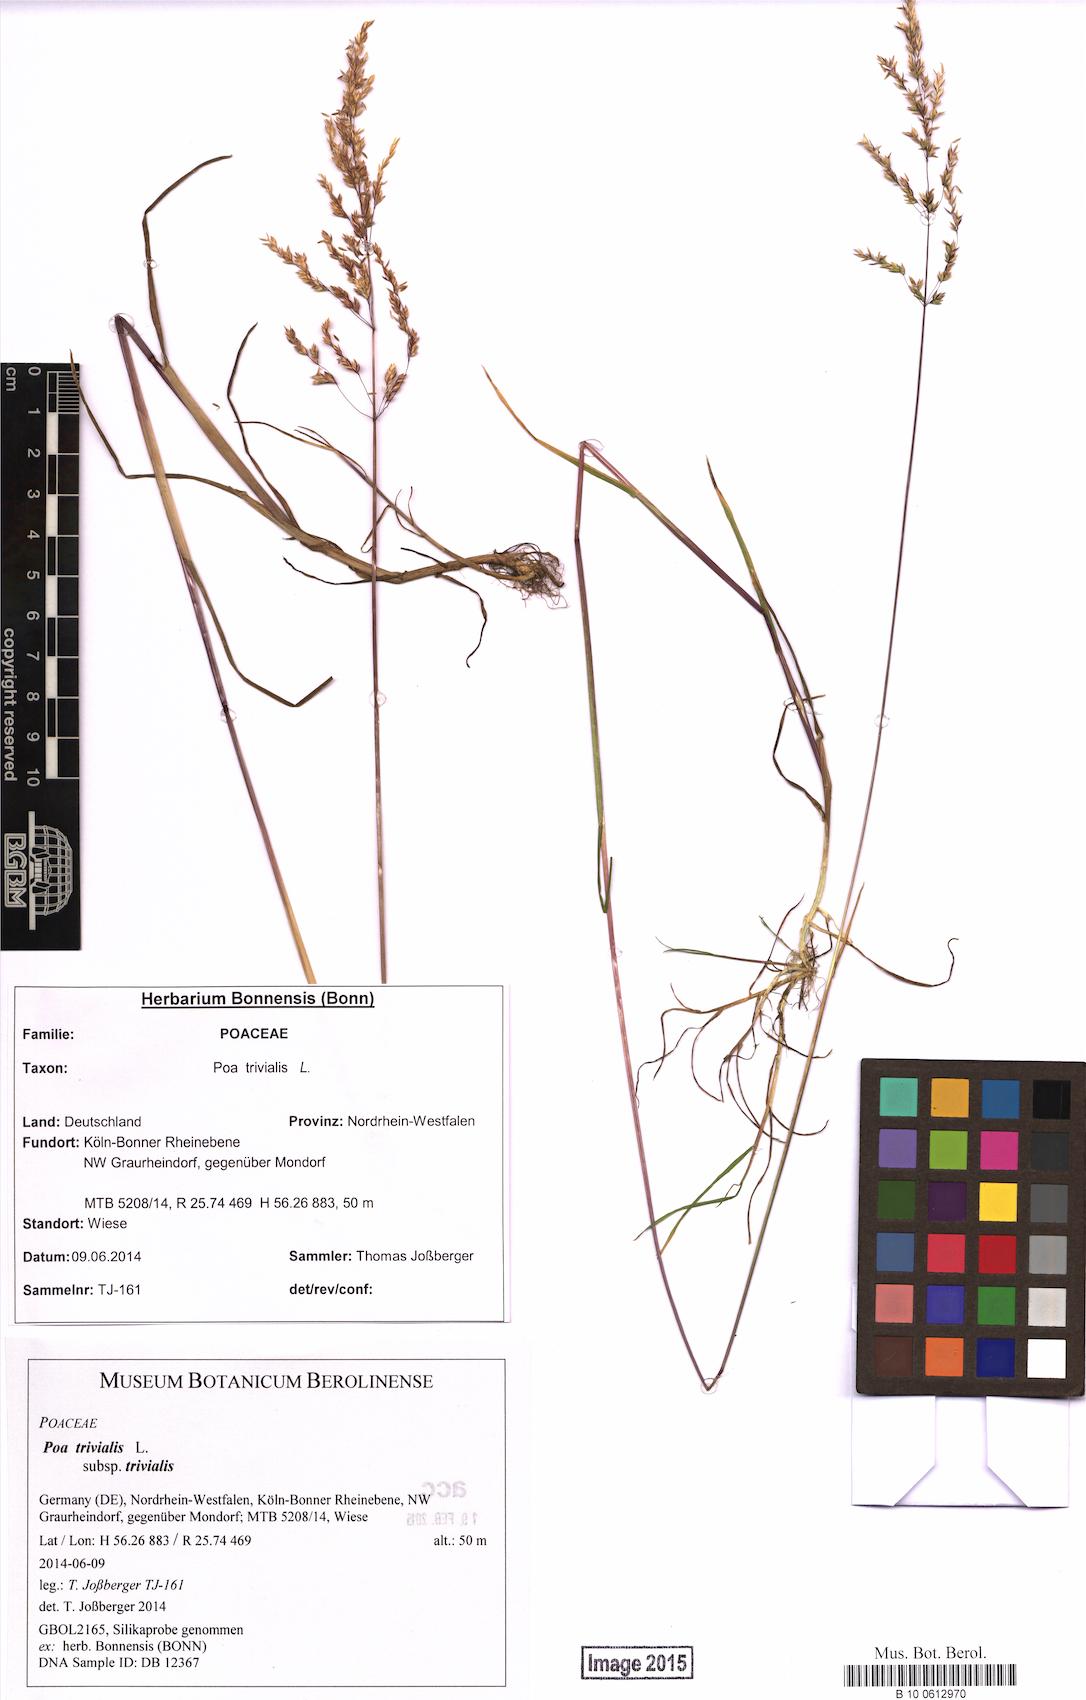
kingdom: Plantae
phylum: Tracheophyta
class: Liliopsida
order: Poales
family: Poaceae
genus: Poa
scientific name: Poa trivialis
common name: Rough bluegrass
